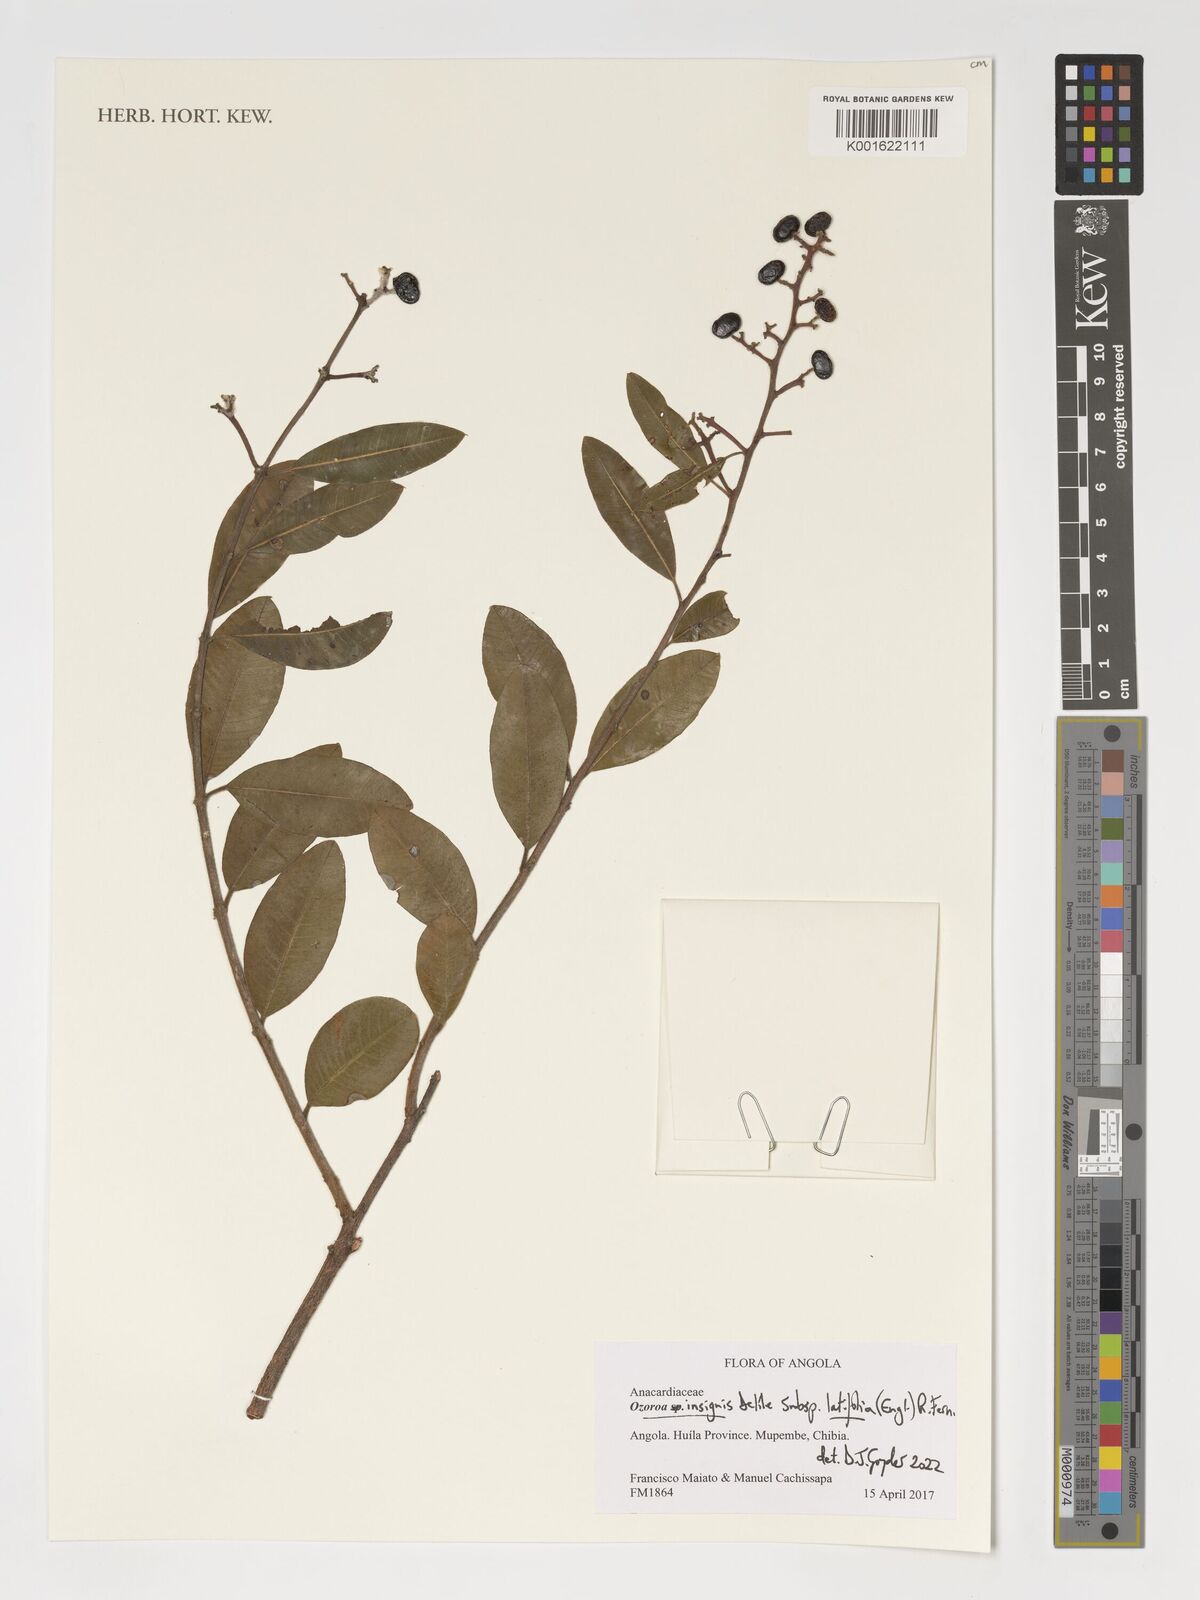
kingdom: Plantae
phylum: Tracheophyta
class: Magnoliopsida
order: Sapindales
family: Anacardiaceae
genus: Ozoroa
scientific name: Ozoroa insignis
